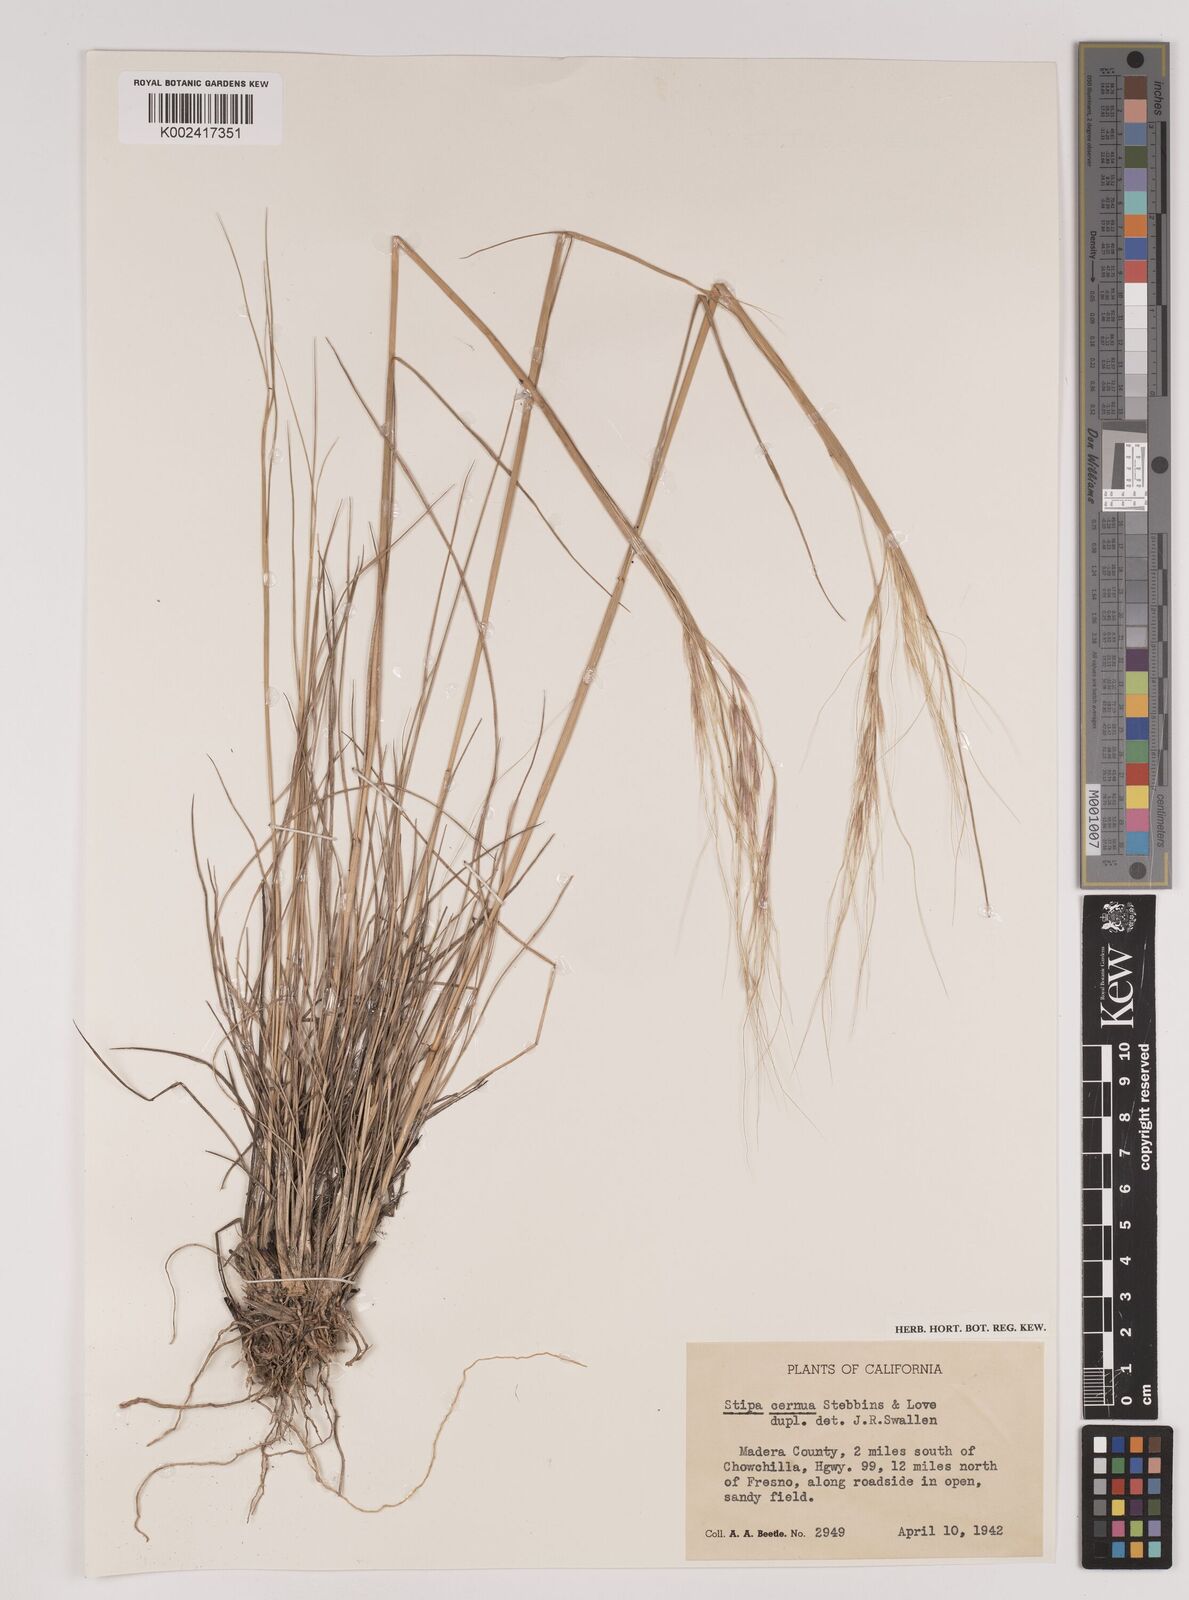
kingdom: Plantae
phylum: Tracheophyta
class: Liliopsida
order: Poales
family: Poaceae
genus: Nassella
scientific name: Nassella cernua
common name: Nodding needlegrass
